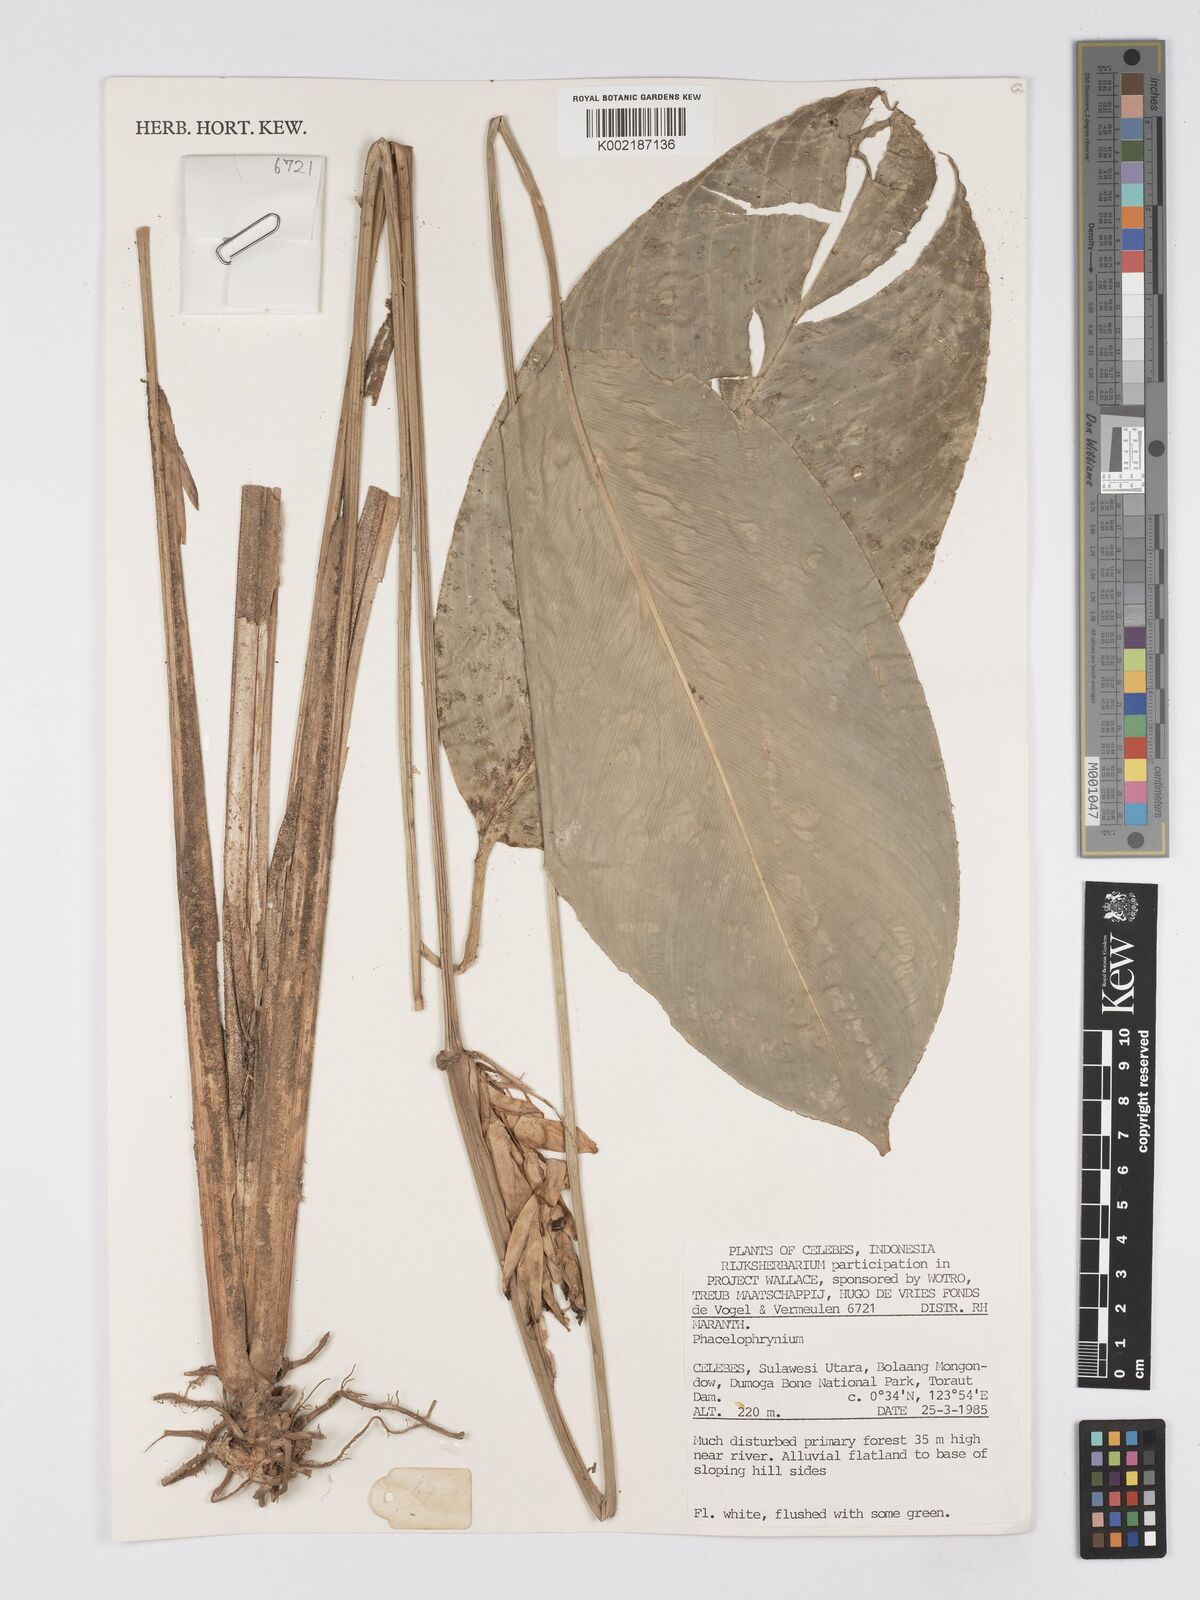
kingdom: Plantae
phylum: Tracheophyta
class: Liliopsida
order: Zingiberales
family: Marantaceae
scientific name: Marantaceae
